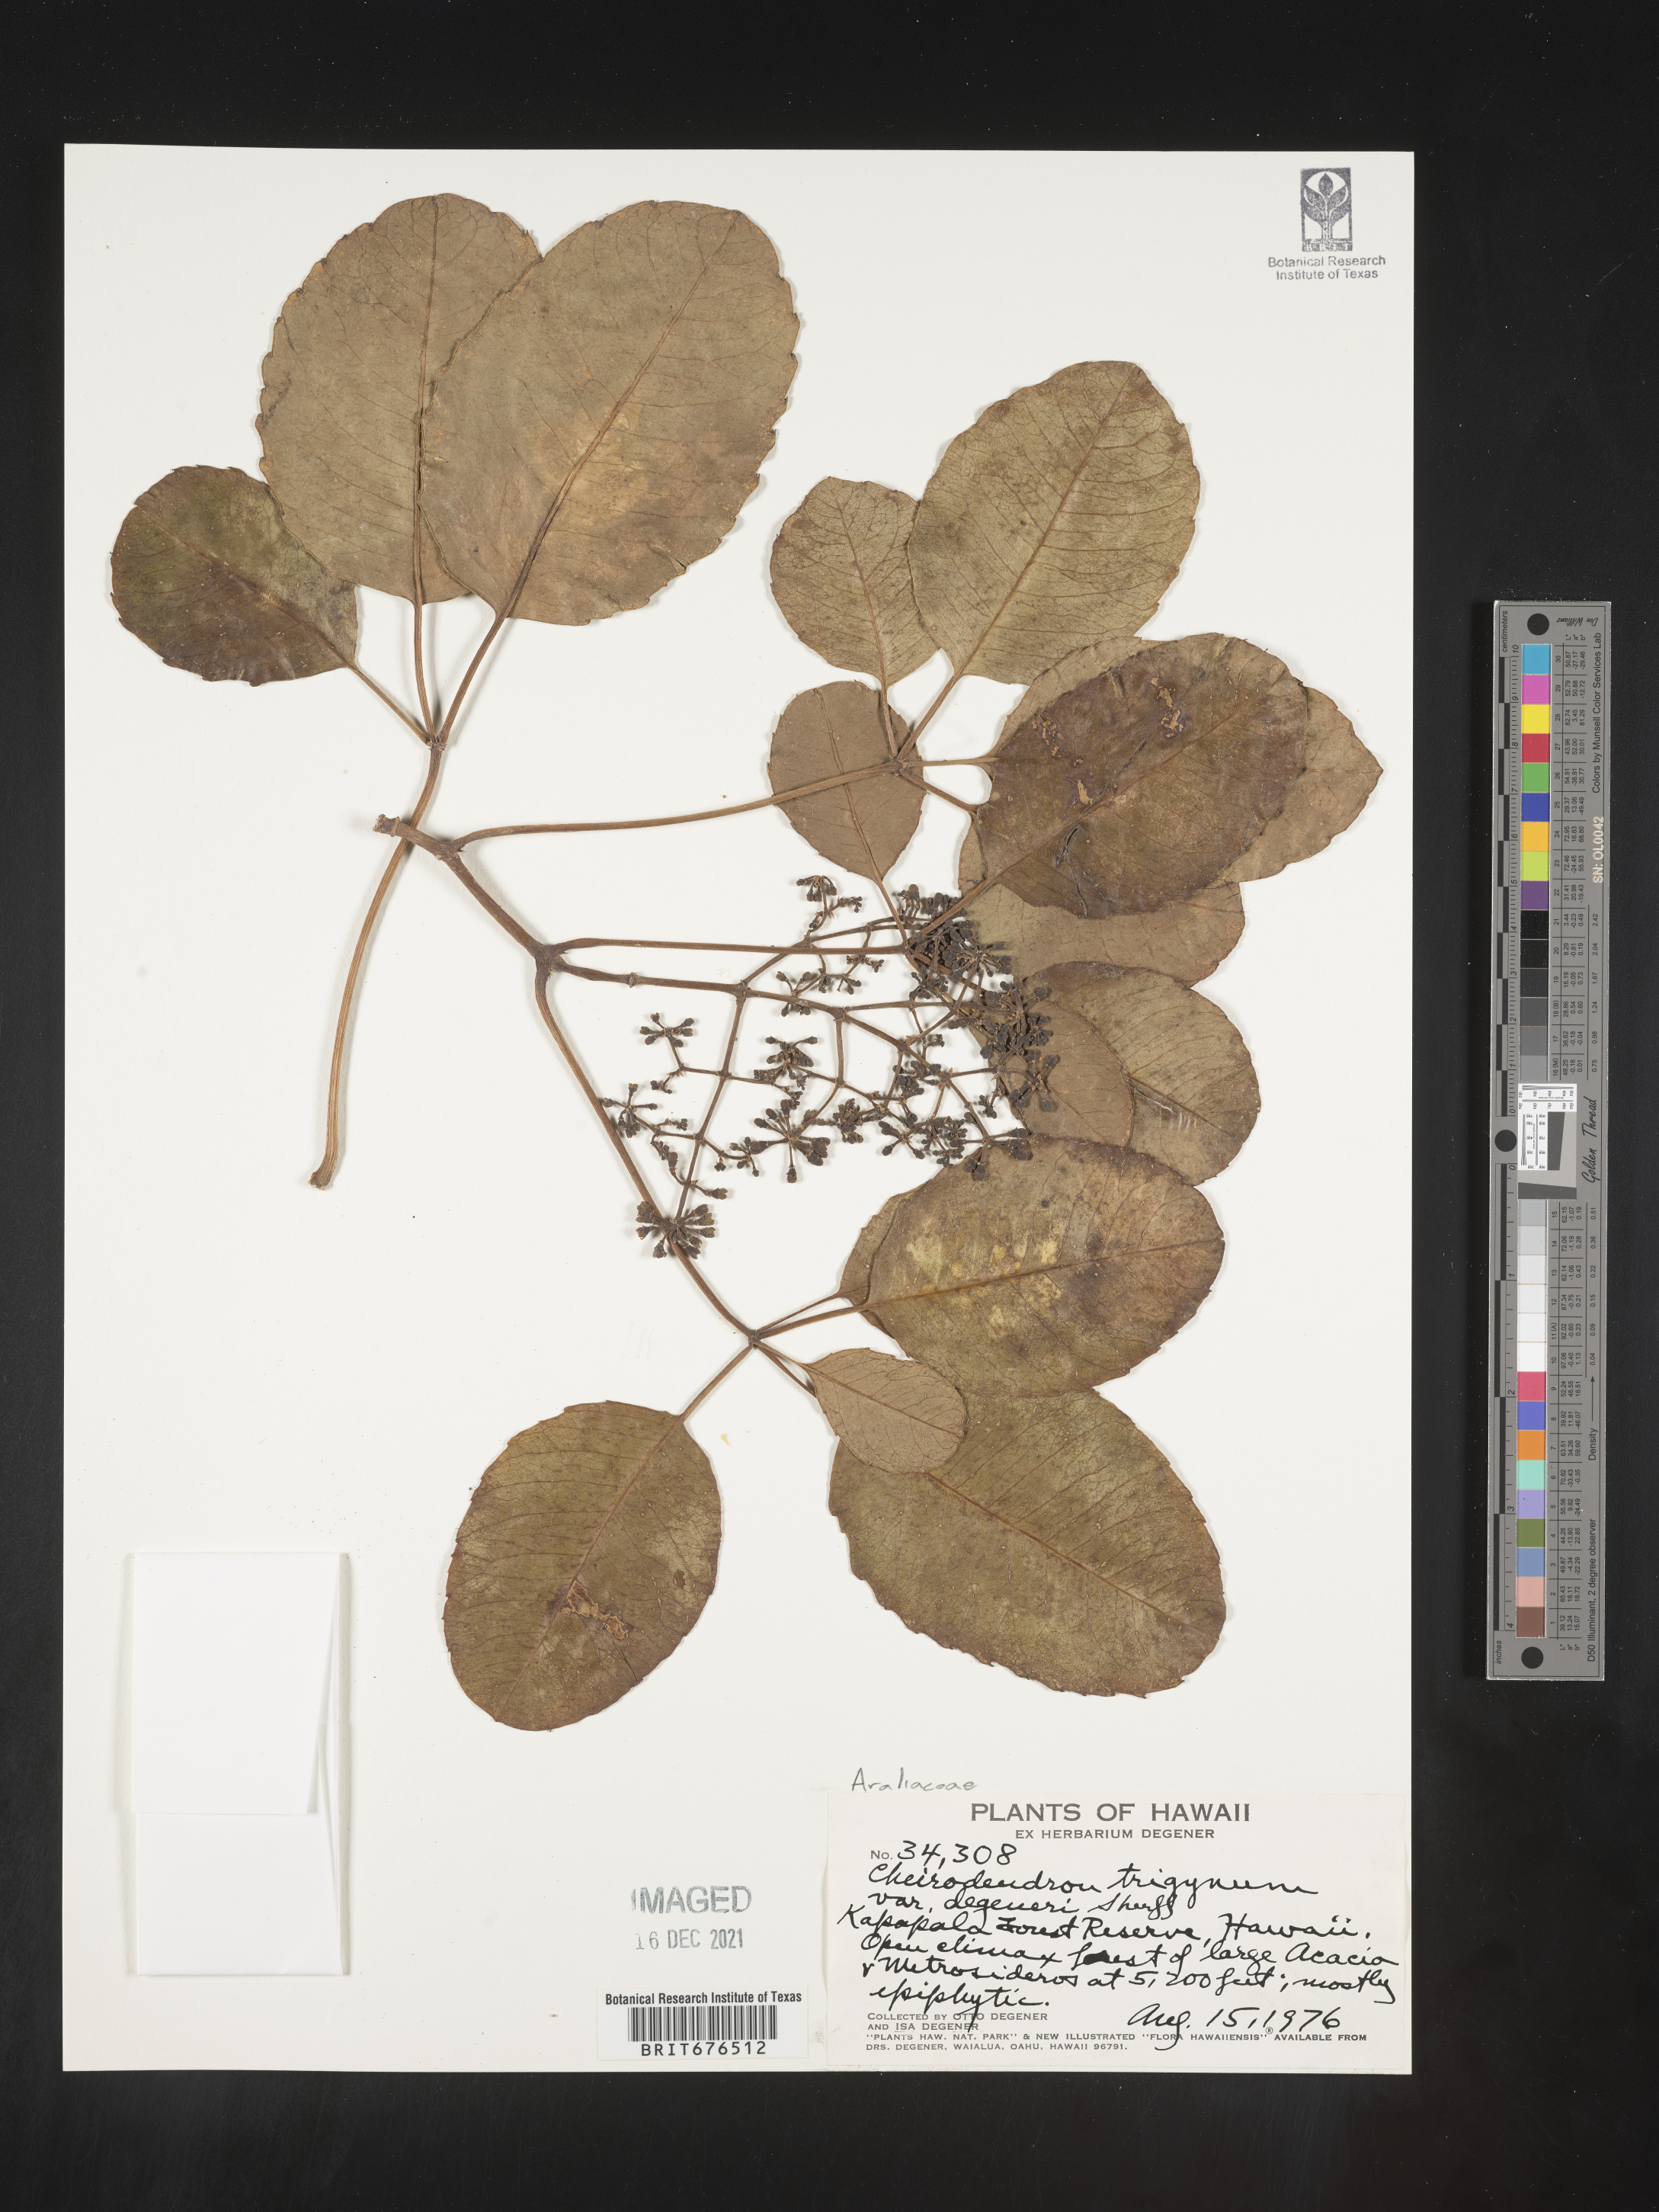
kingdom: Plantae
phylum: Tracheophyta
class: Magnoliopsida
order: Apiales
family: Araliaceae
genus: Cheirodendron
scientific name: Cheirodendron trigynum
